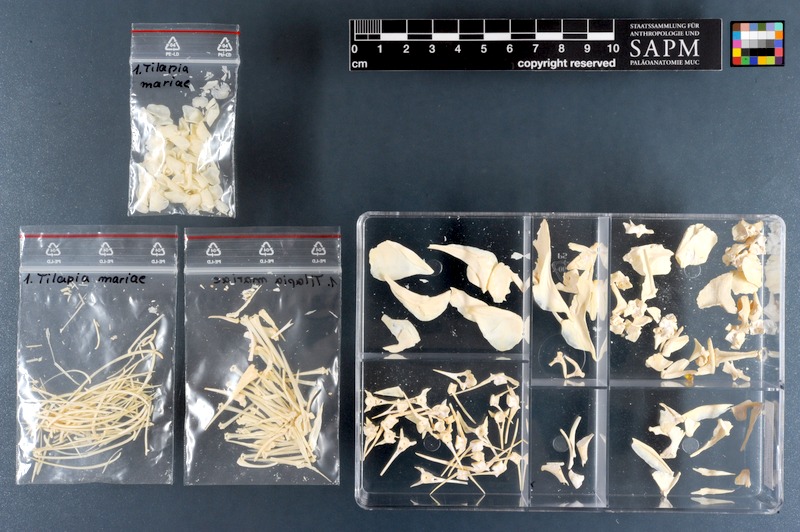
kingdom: Animalia
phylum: Chordata
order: Perciformes
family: Cichlidae
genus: Pelmatolapia
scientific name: Pelmatolapia mariae
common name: Spotted tilapia
